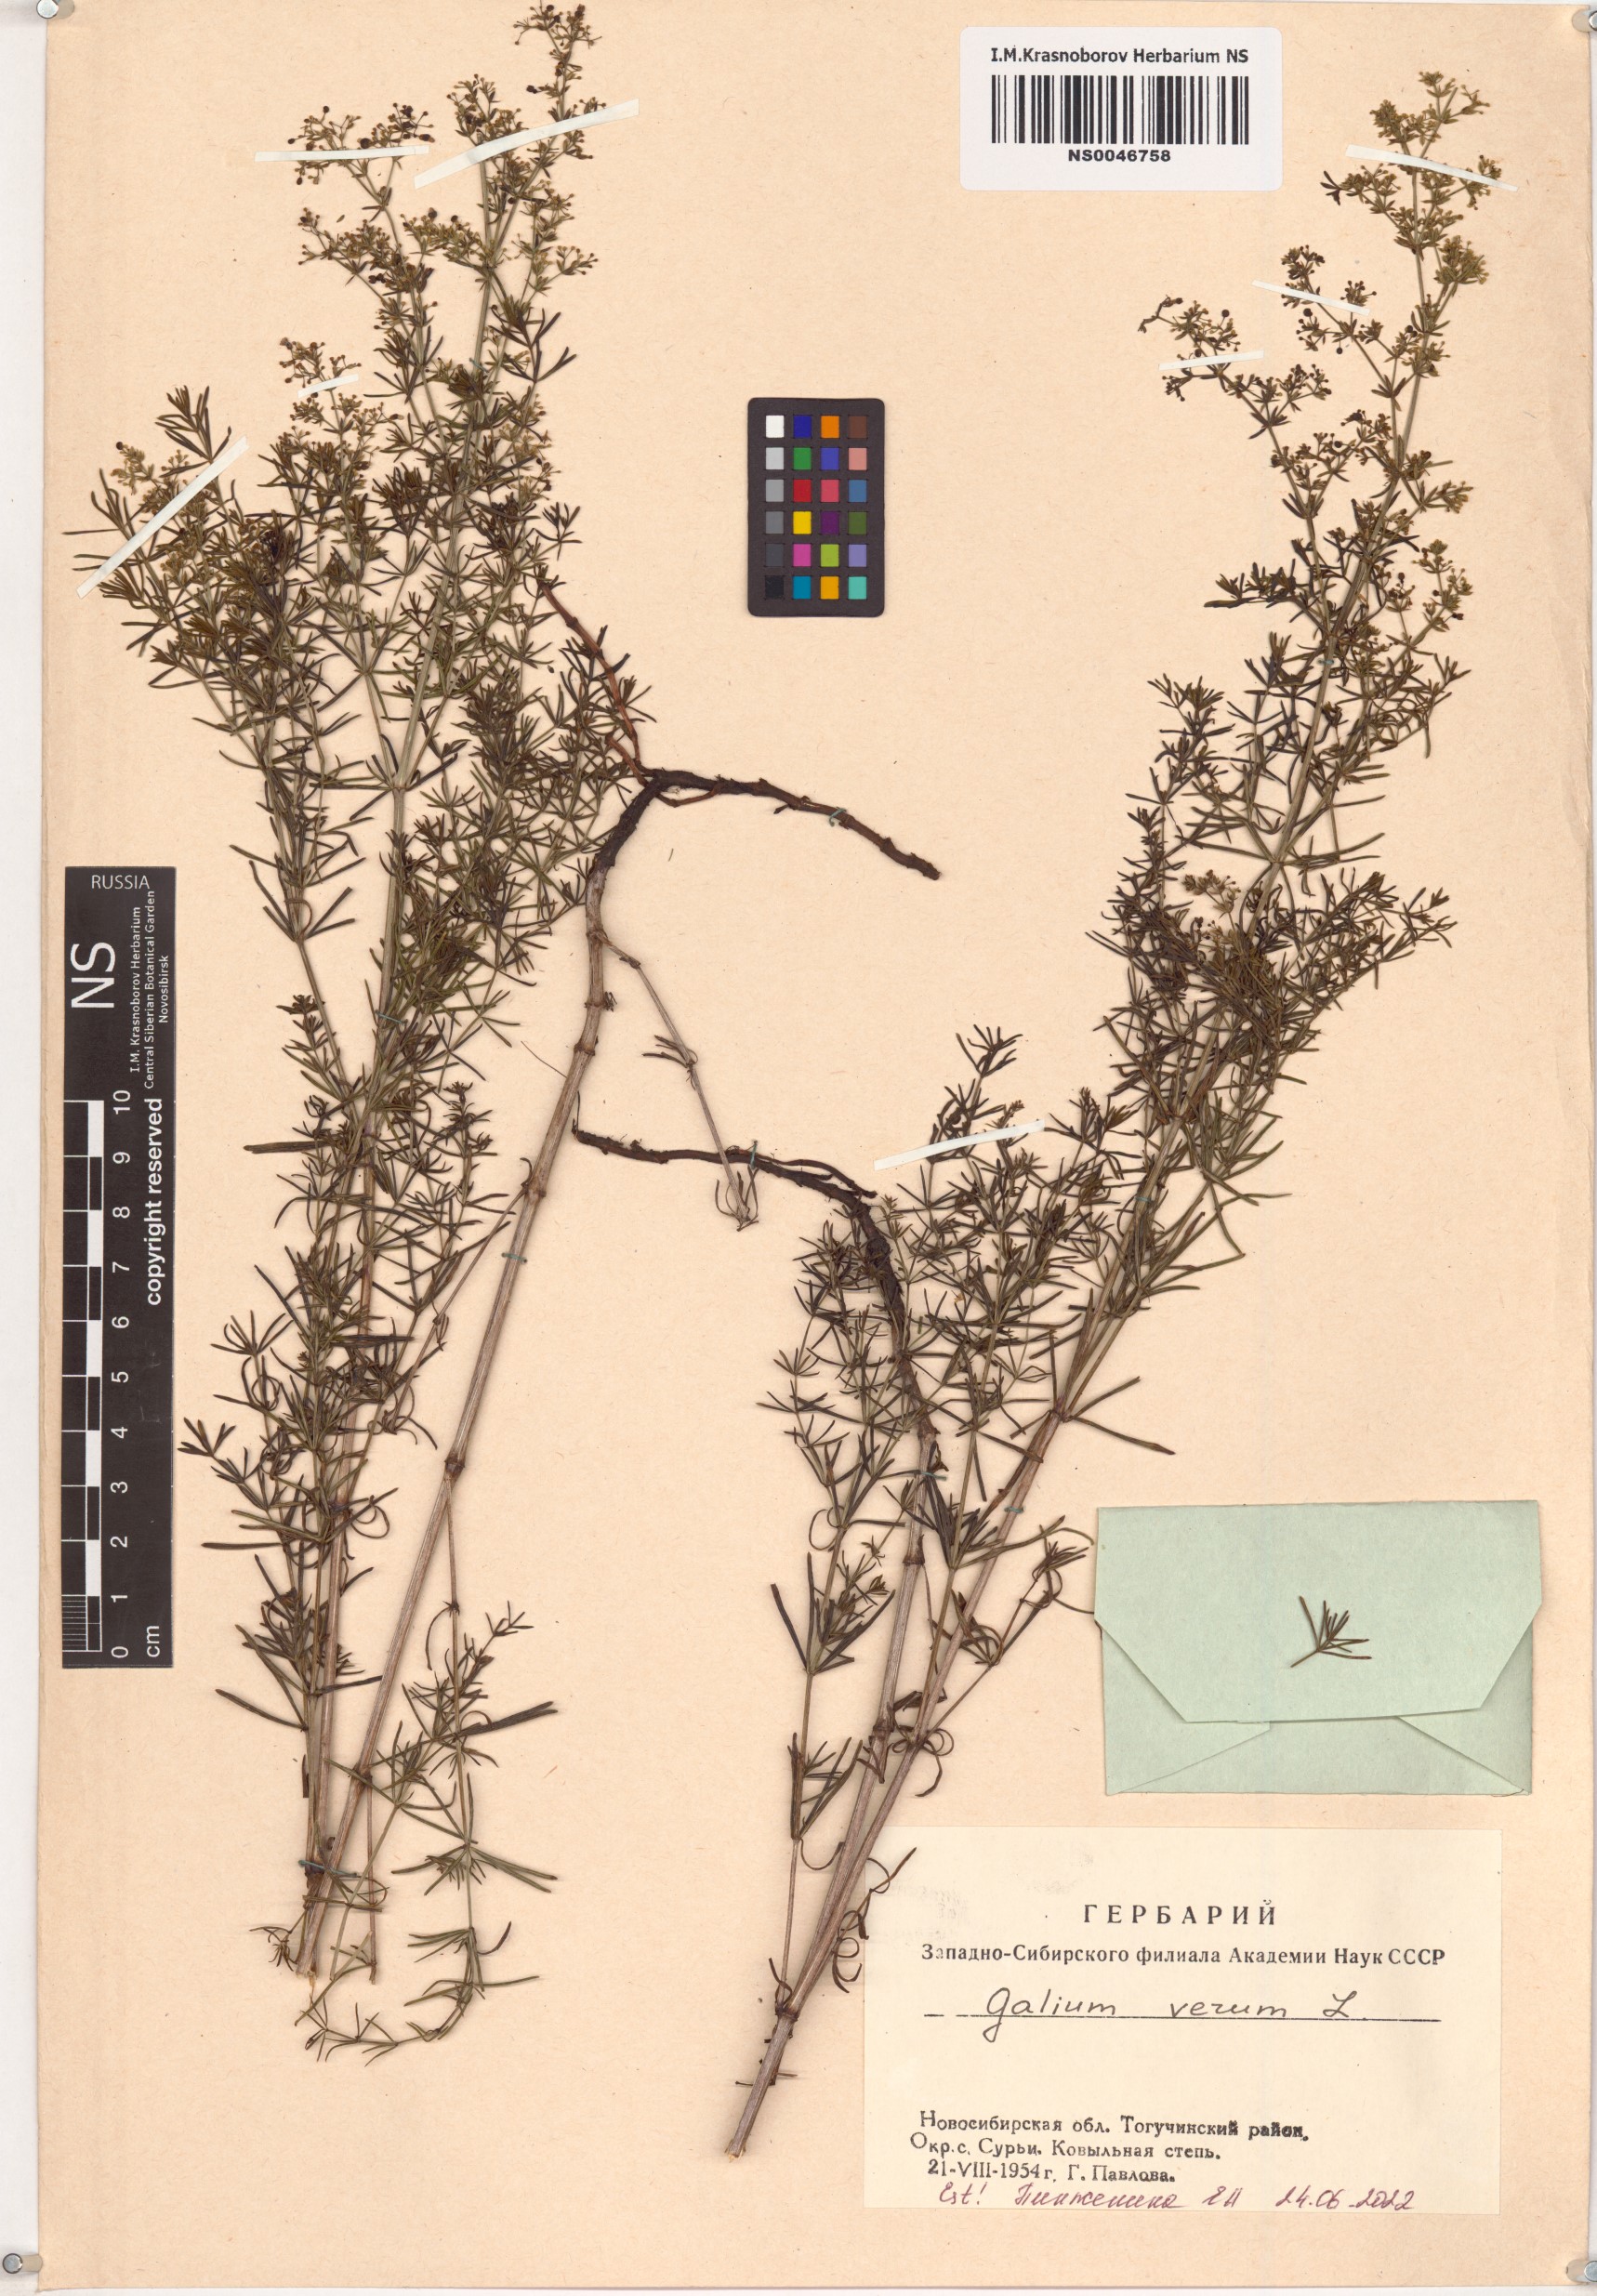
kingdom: Plantae
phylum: Tracheophyta
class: Magnoliopsida
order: Gentianales
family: Rubiaceae
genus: Galium
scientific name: Galium verum
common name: Lady's bedstraw
